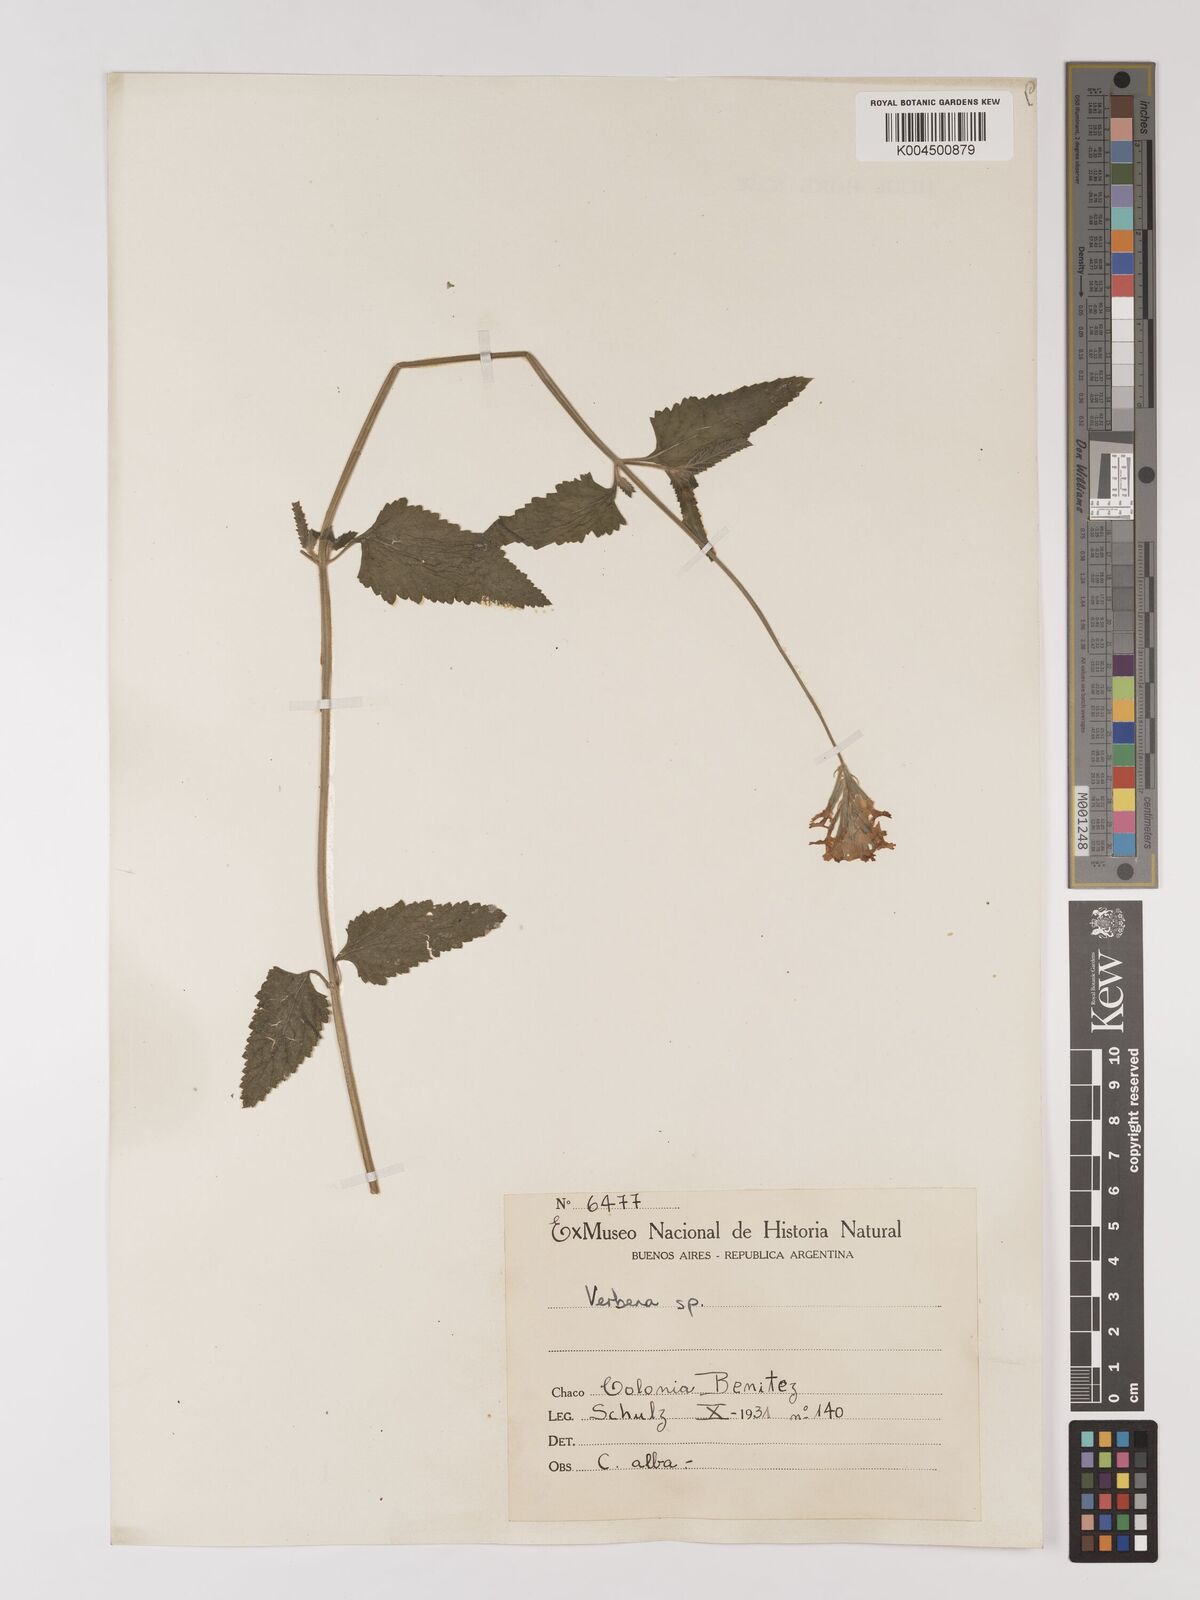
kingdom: Plantae
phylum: Tracheophyta
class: Magnoliopsida
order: Lamiales
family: Verbenaceae
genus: Verbena
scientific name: Verbena
